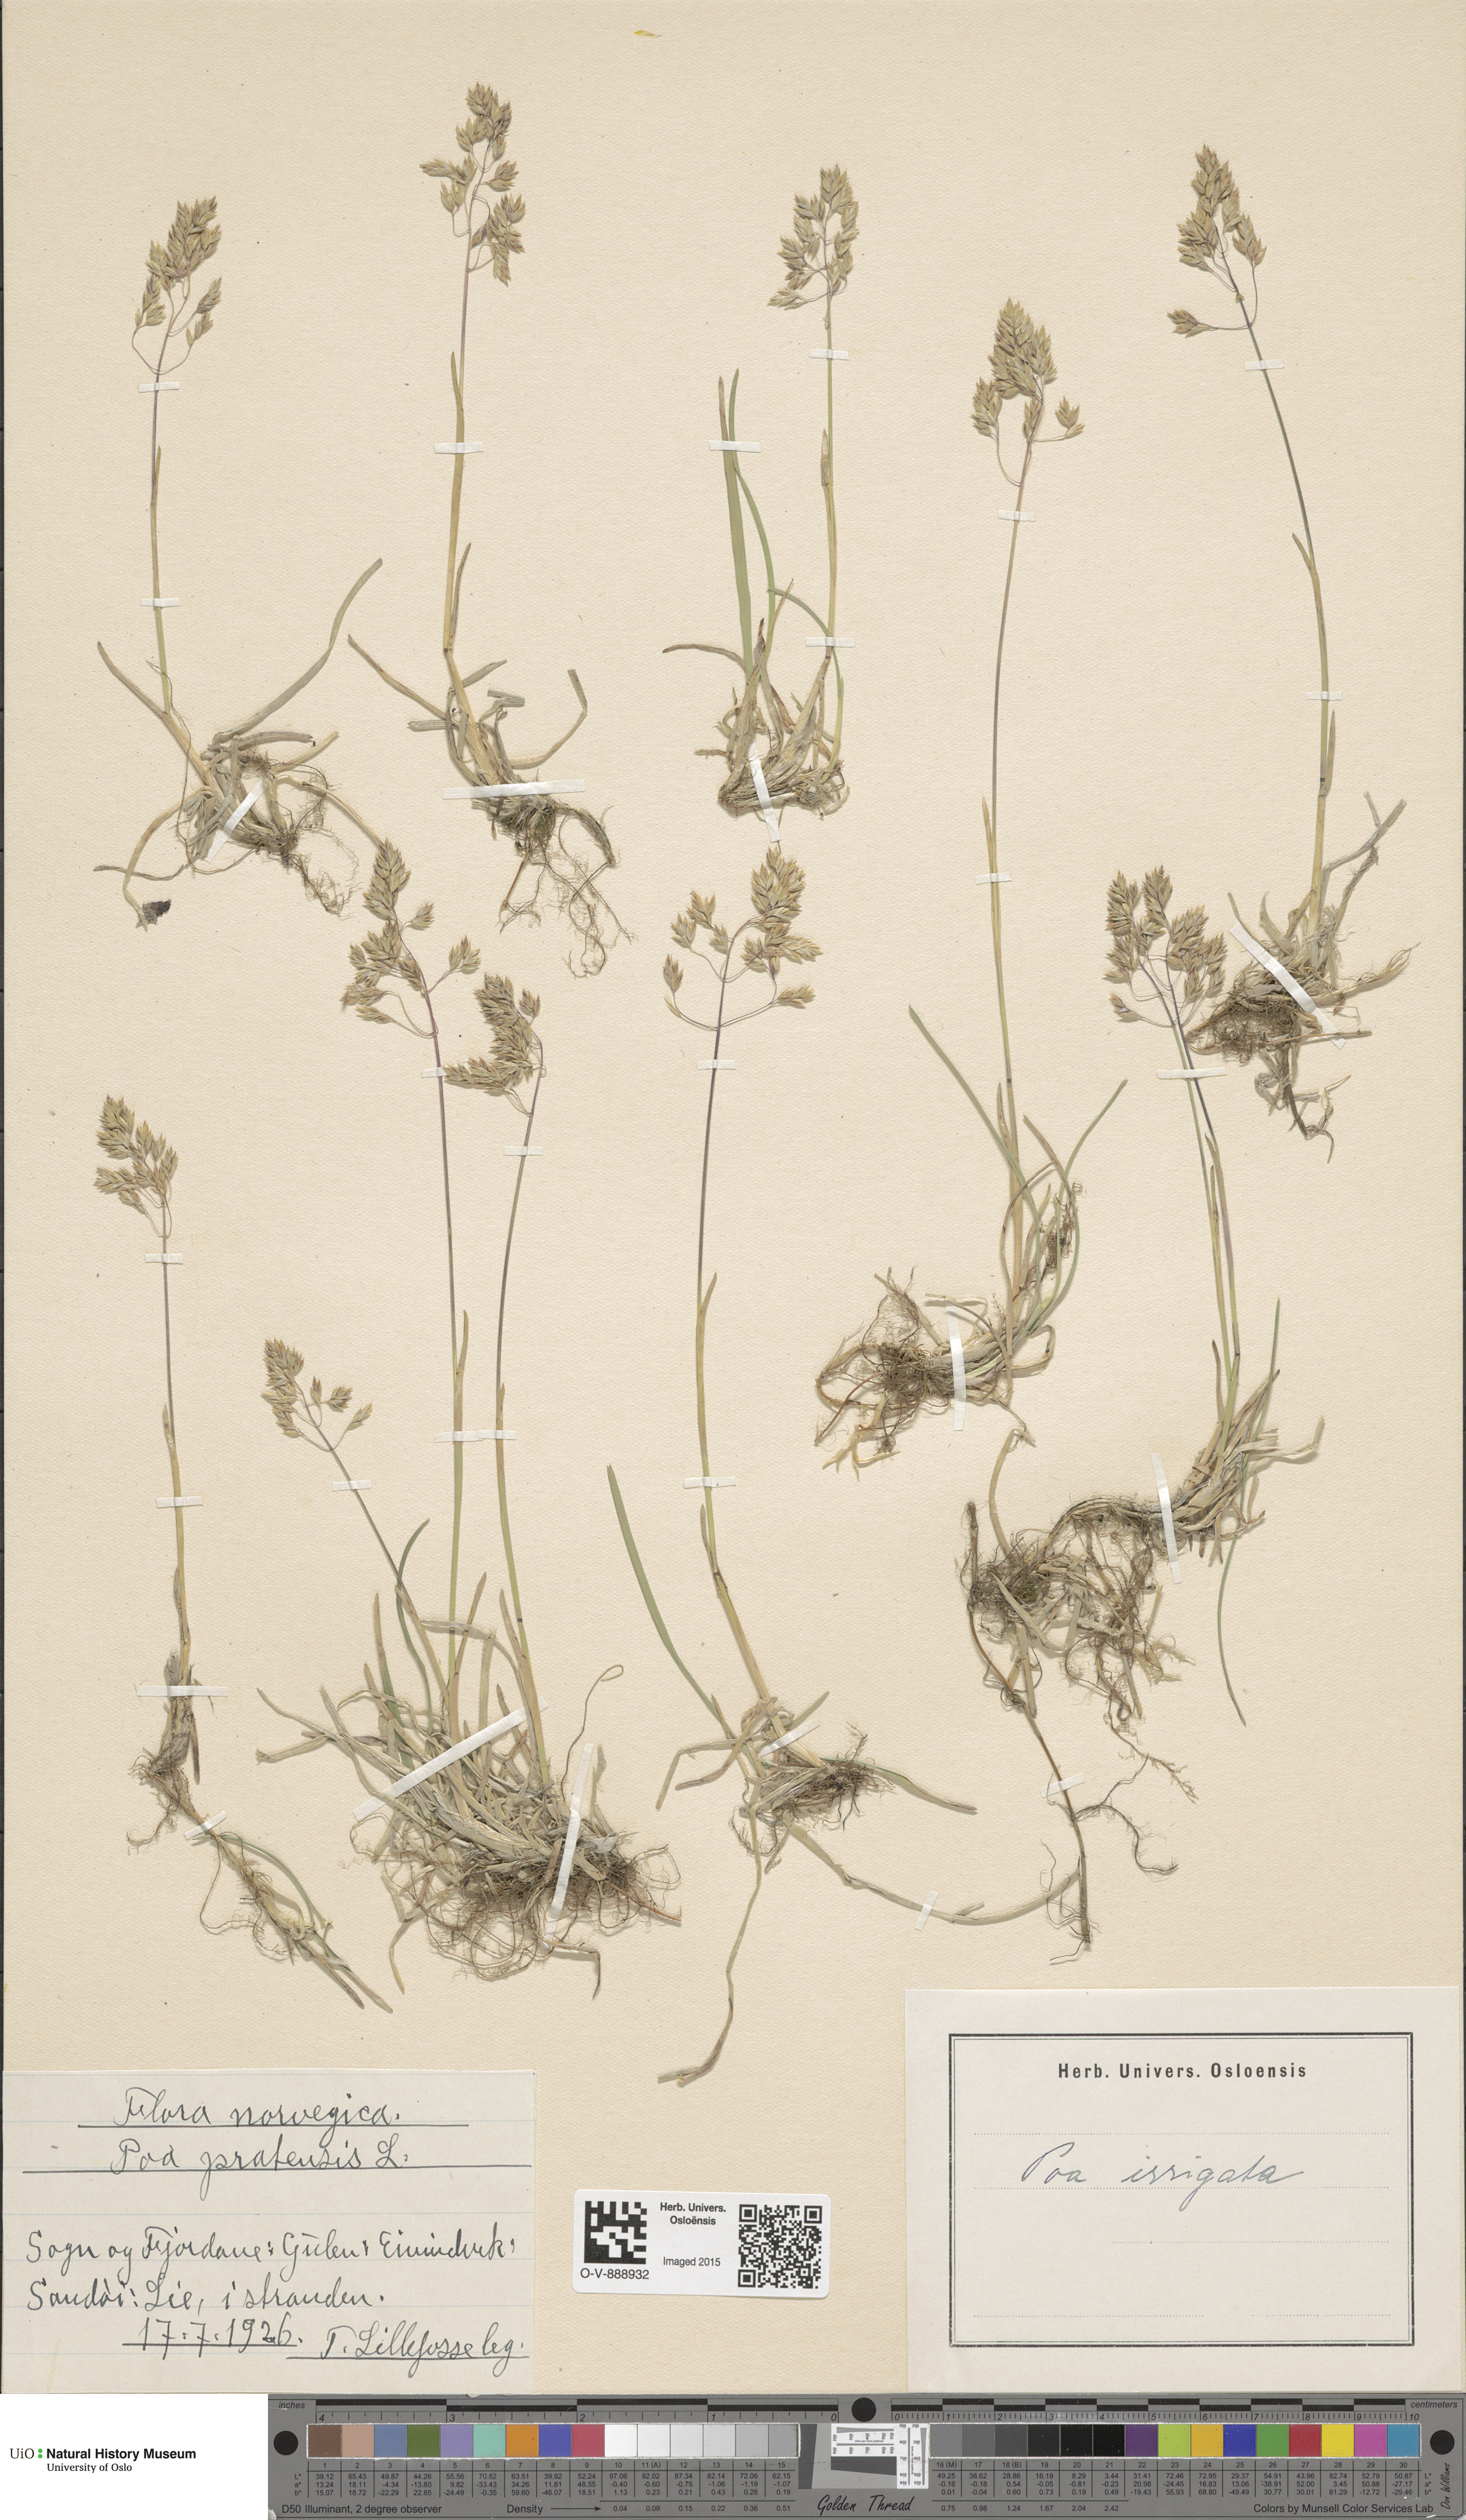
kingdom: Plantae
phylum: Tracheophyta
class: Liliopsida
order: Poales
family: Poaceae
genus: Poa
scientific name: Poa humilis
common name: Spreading meadow-grass
